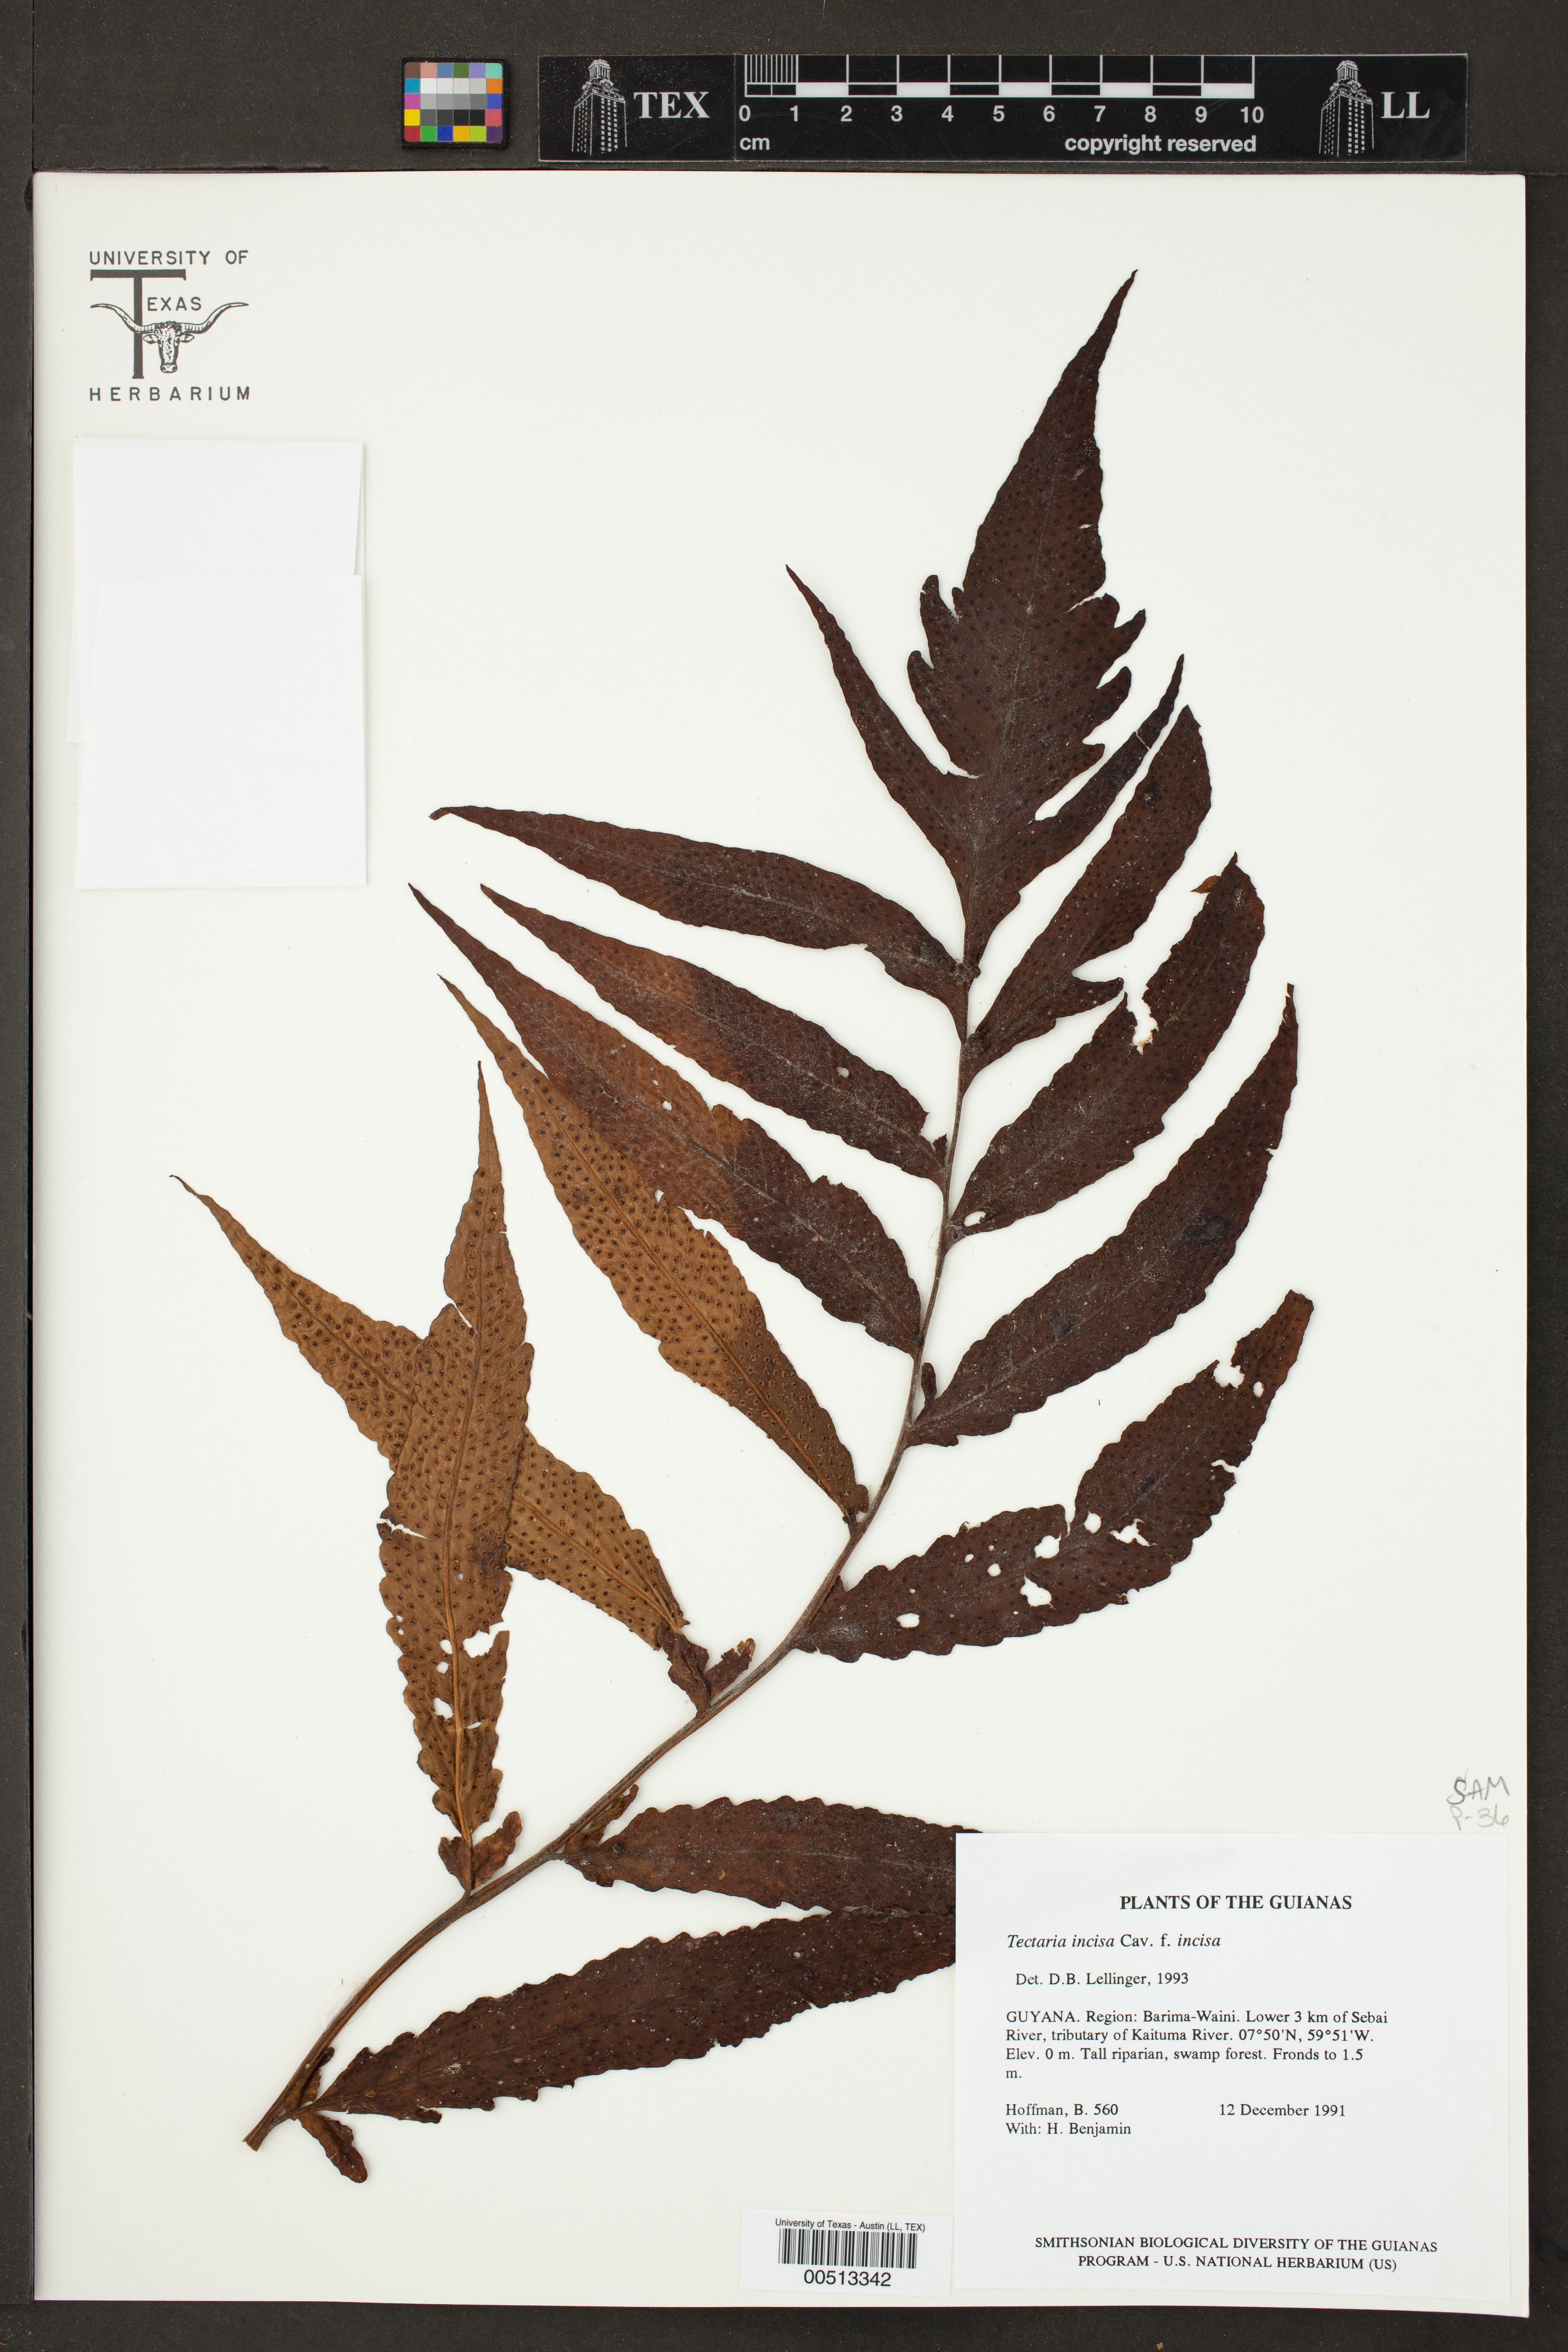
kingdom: Plantae
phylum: Tracheophyta
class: Polypodiopsida
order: Polypodiales
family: Tectariaceae
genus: Tectaria
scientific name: Tectaria incisa
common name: Incised halberd fern
